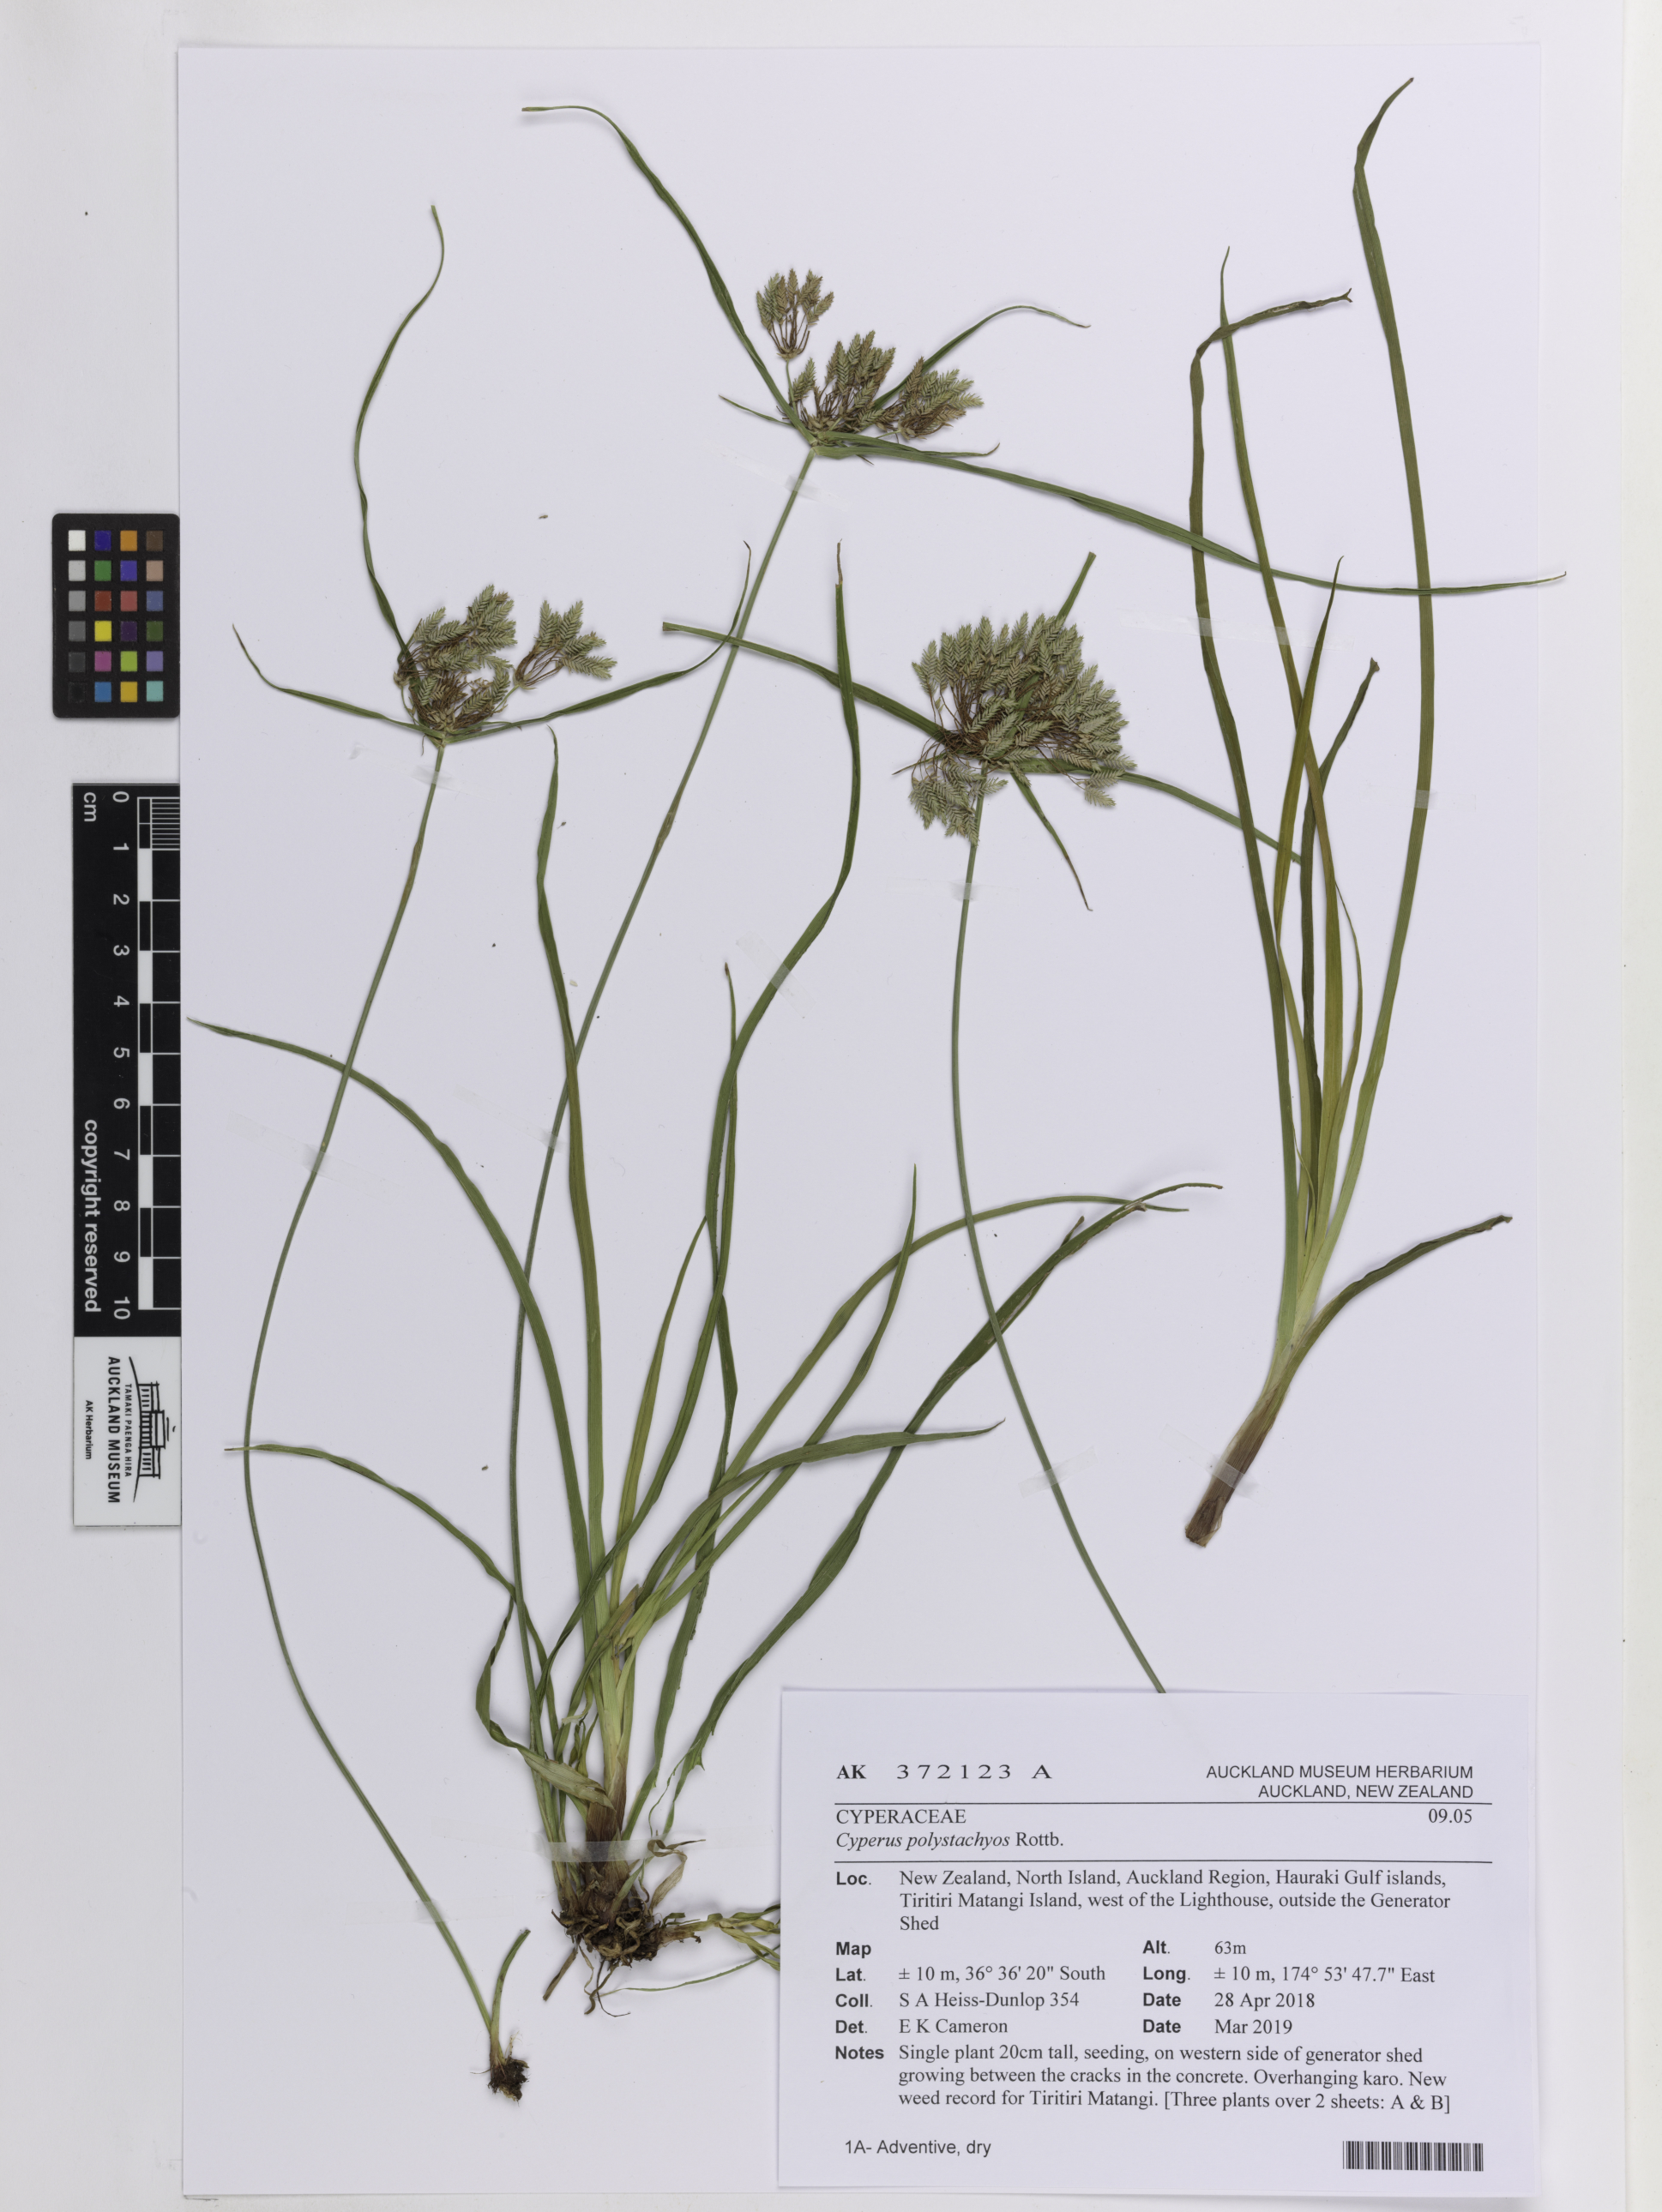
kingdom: Plantae
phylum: Tracheophyta
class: Liliopsida
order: Poales
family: Cyperaceae
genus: Cyperus
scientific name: Cyperus polystachyos
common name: Bunchy flat sedge
